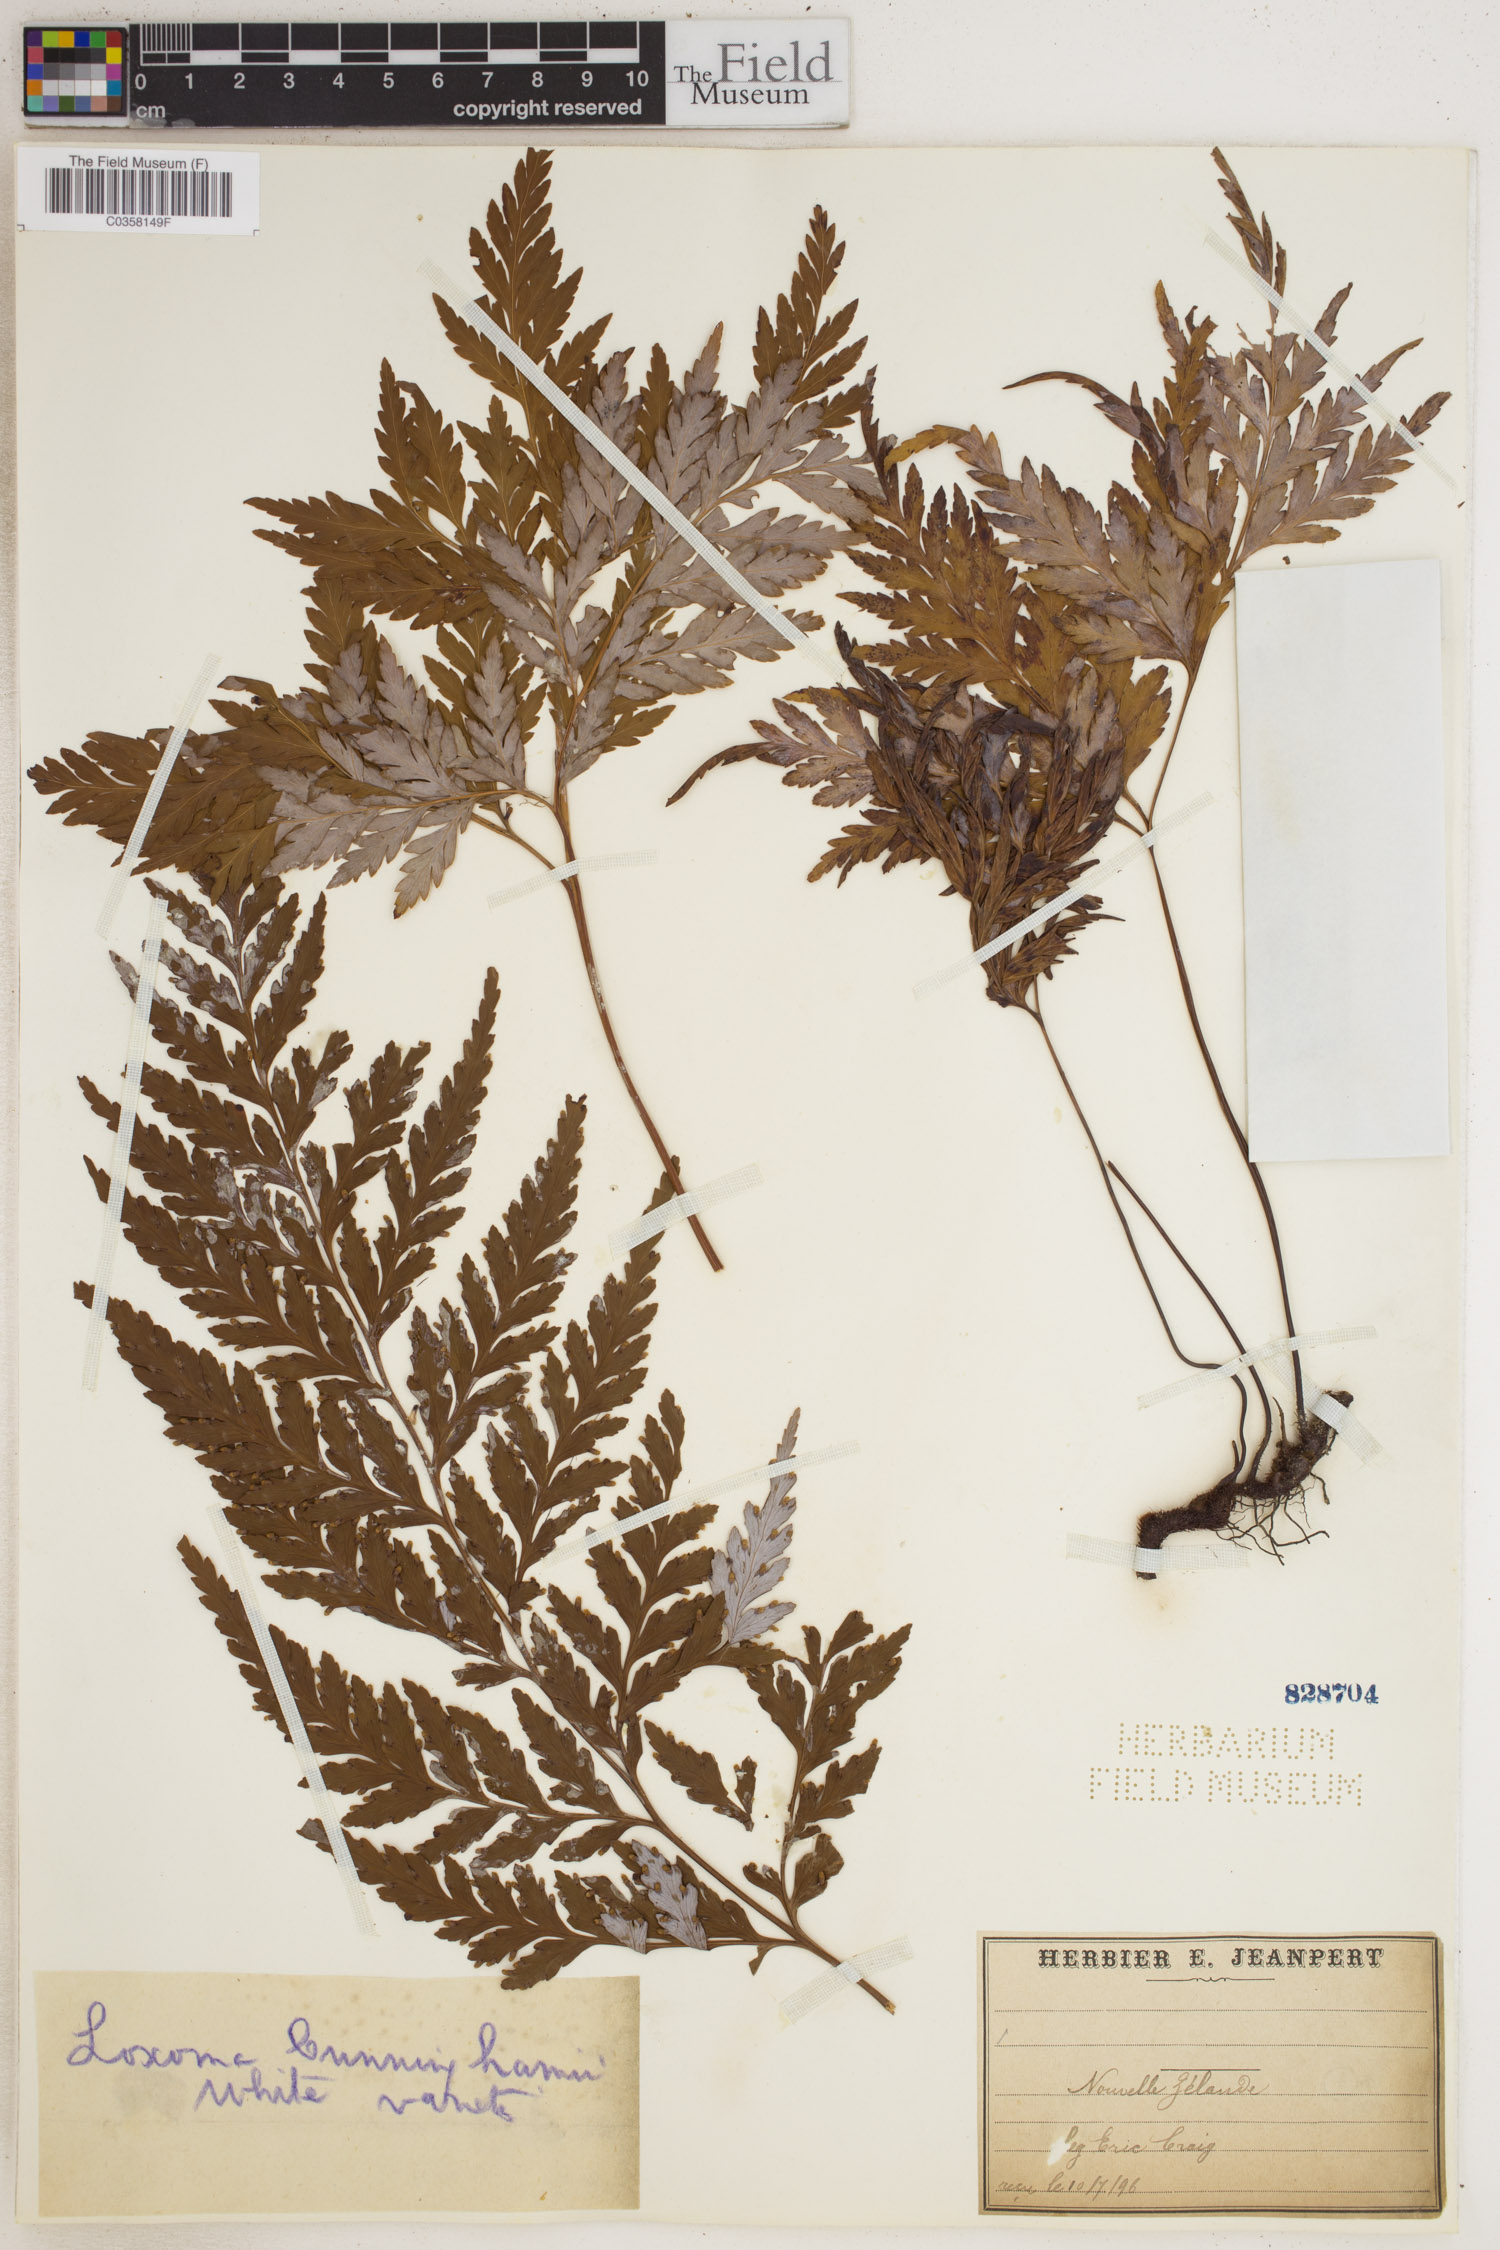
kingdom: Plantae
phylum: Tracheophyta
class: Polypodiopsida
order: Cyatheales
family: Loxsomataceae
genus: Loxsoma
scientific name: Loxsoma cunninghamii
